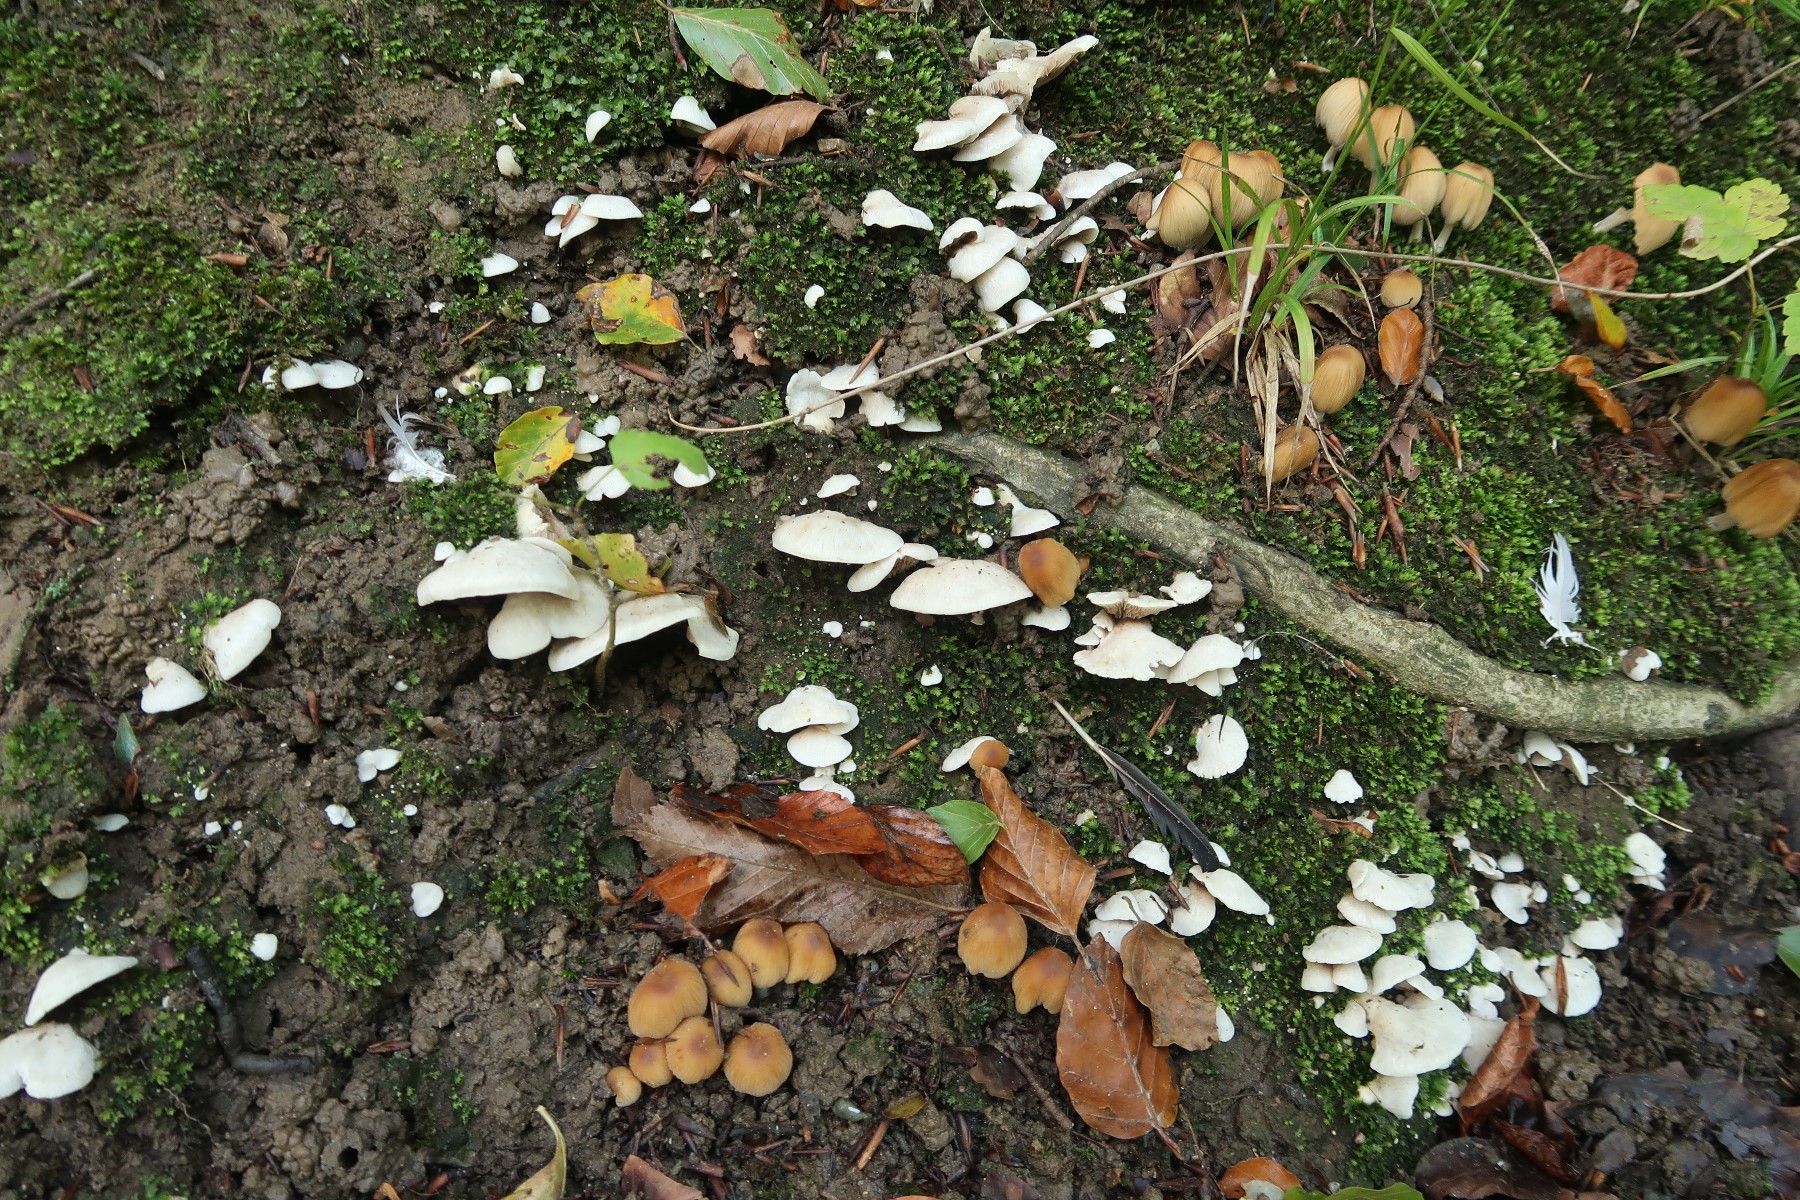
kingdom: Fungi
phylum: Basidiomycota
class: Agaricomycetes
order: Agaricales
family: Crepidotaceae
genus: Crepidotus
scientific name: Crepidotus autochthonus
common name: skæv muslingesvamp
